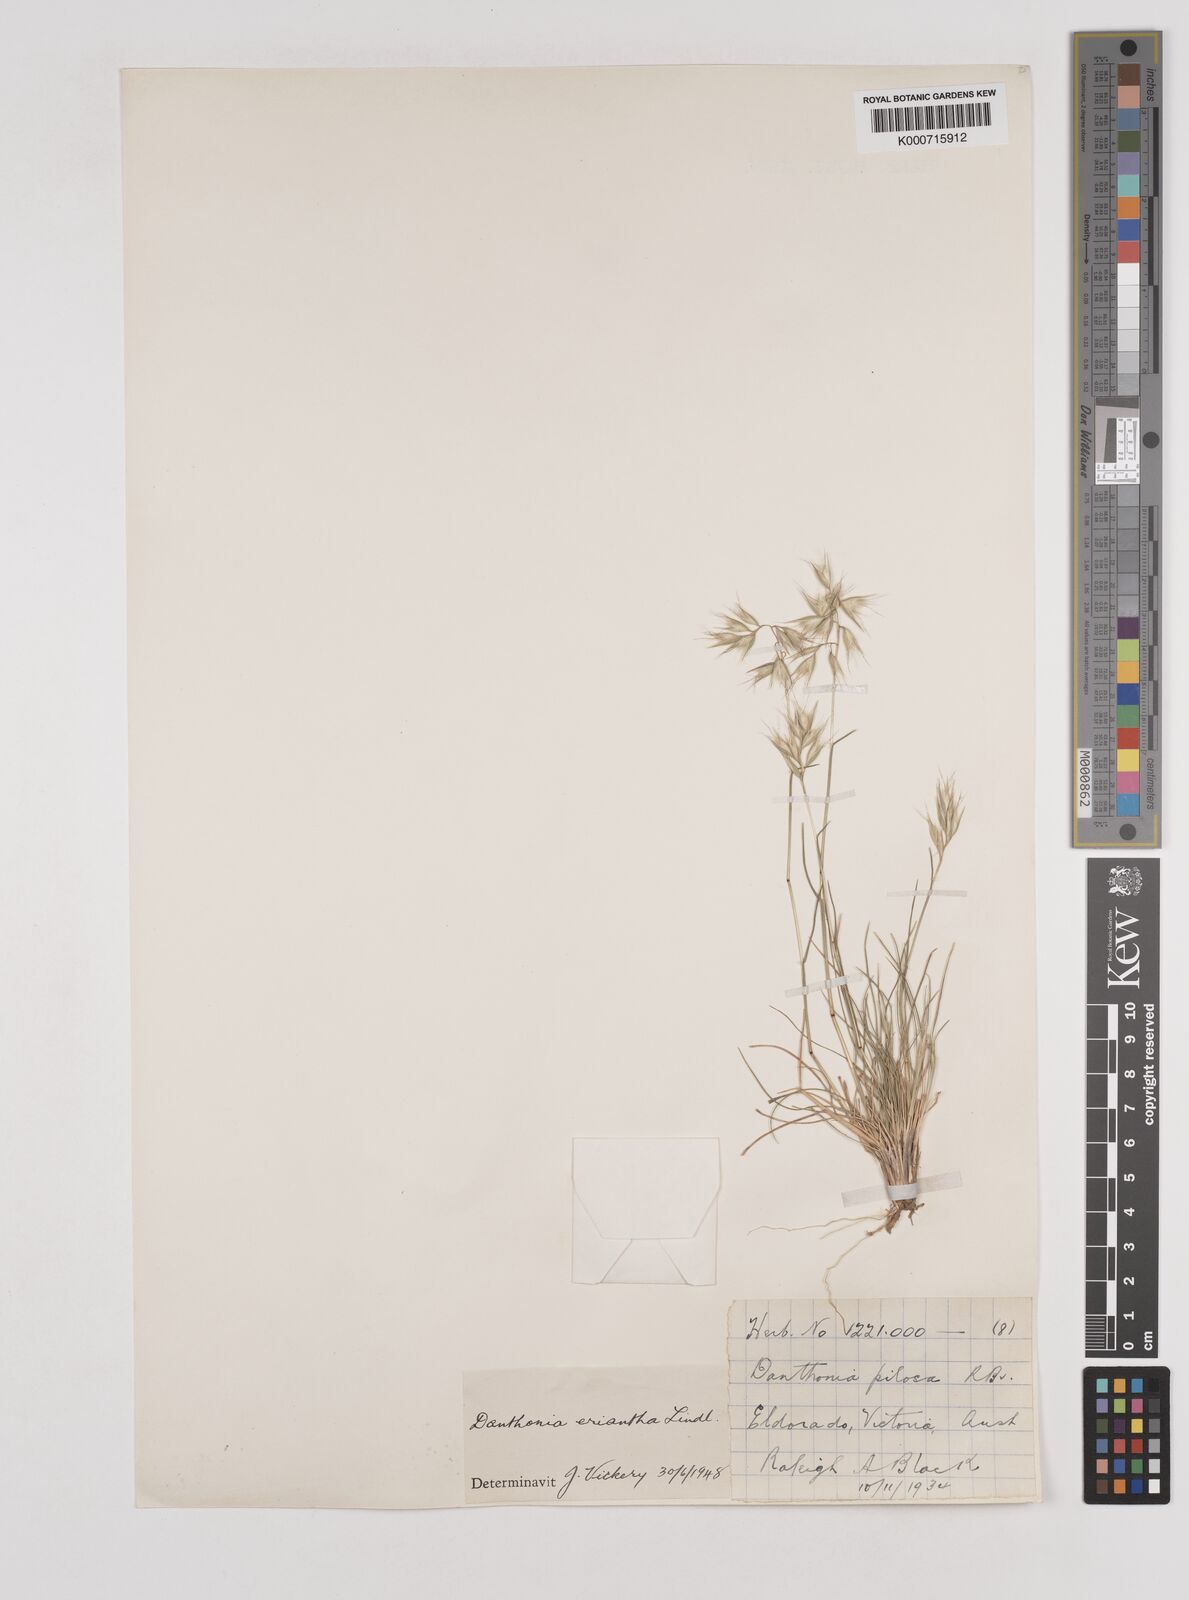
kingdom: Plantae
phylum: Tracheophyta
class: Liliopsida
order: Poales
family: Poaceae
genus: Rytidosperma
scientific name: Rytidosperma erianthum
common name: Hill wallaby grass
